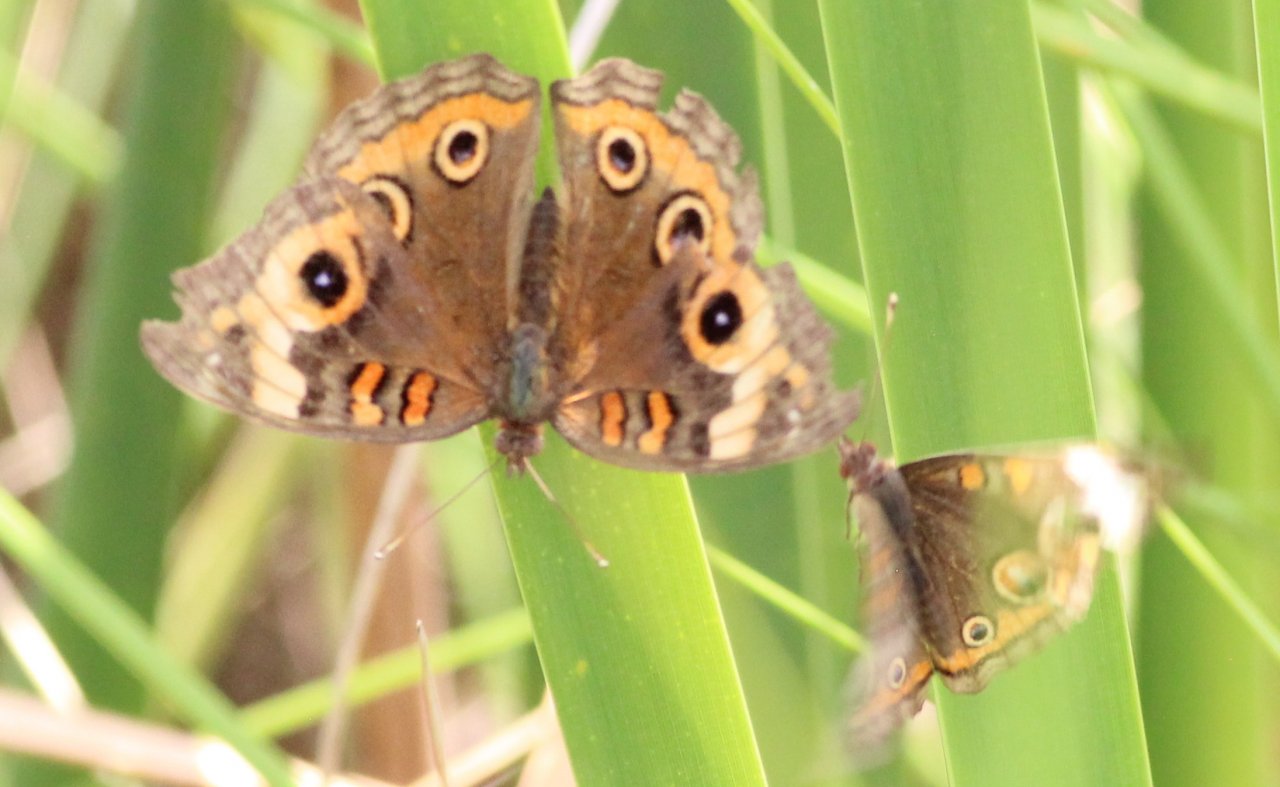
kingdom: Animalia
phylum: Arthropoda
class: Insecta
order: Lepidoptera
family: Nymphalidae
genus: Junonia
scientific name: Junonia coenia
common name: Common Buckeye
